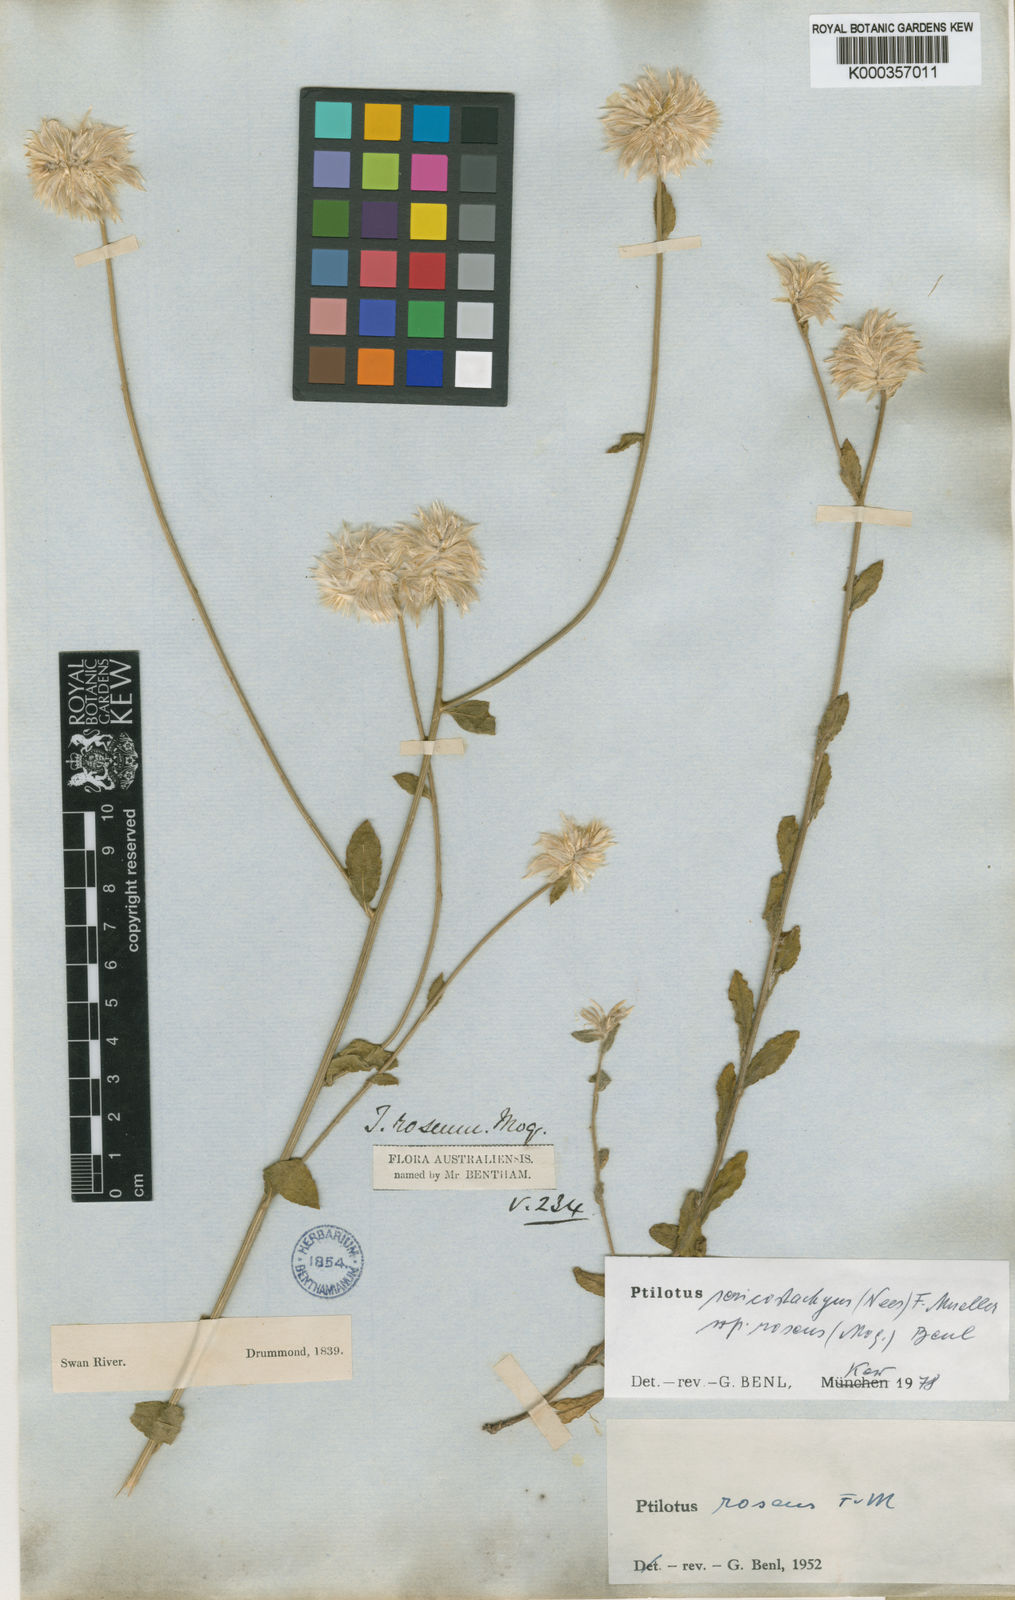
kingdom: Plantae
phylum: Tracheophyta
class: Magnoliopsida
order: Caryophyllales
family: Amaranthaceae
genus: Ptilotus
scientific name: Ptilotus sericostachyus
